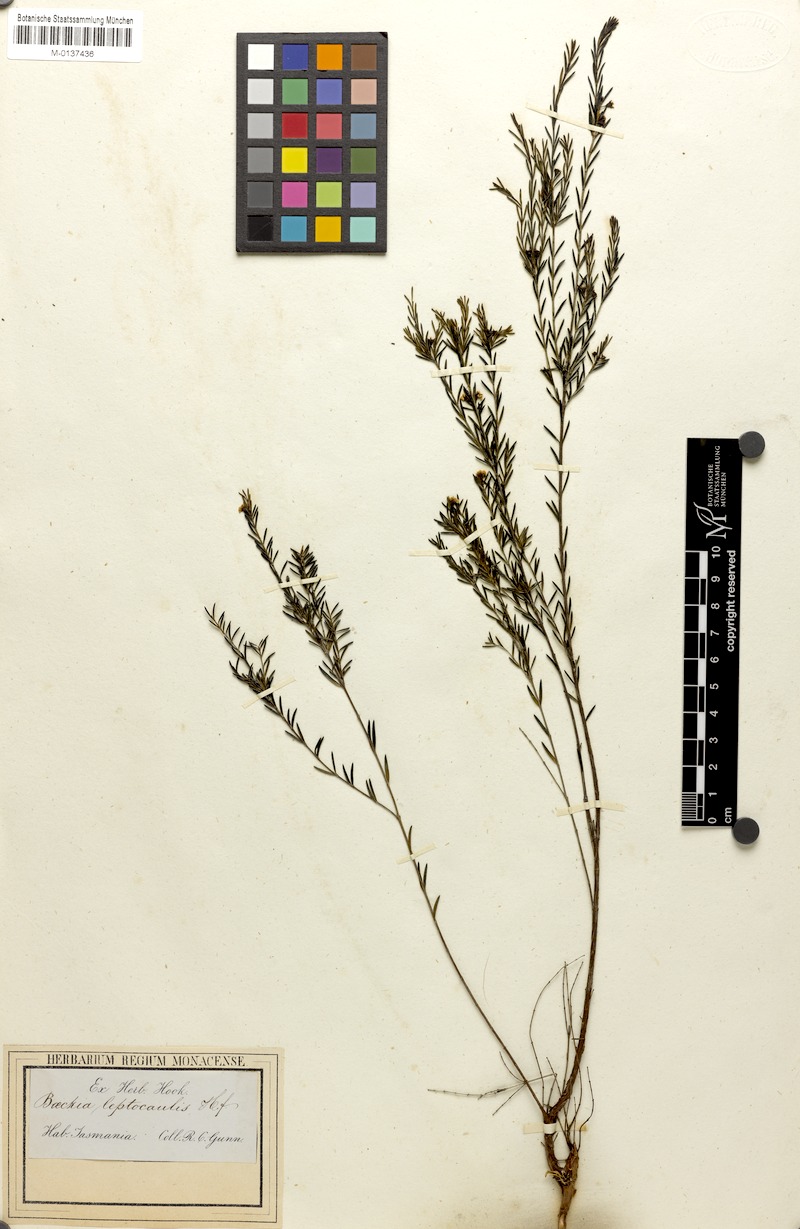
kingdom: Plantae
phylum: Tracheophyta
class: Magnoliopsida
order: Myrtales
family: Myrtaceae
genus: Baeckea
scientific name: Baeckea leptocaulis
